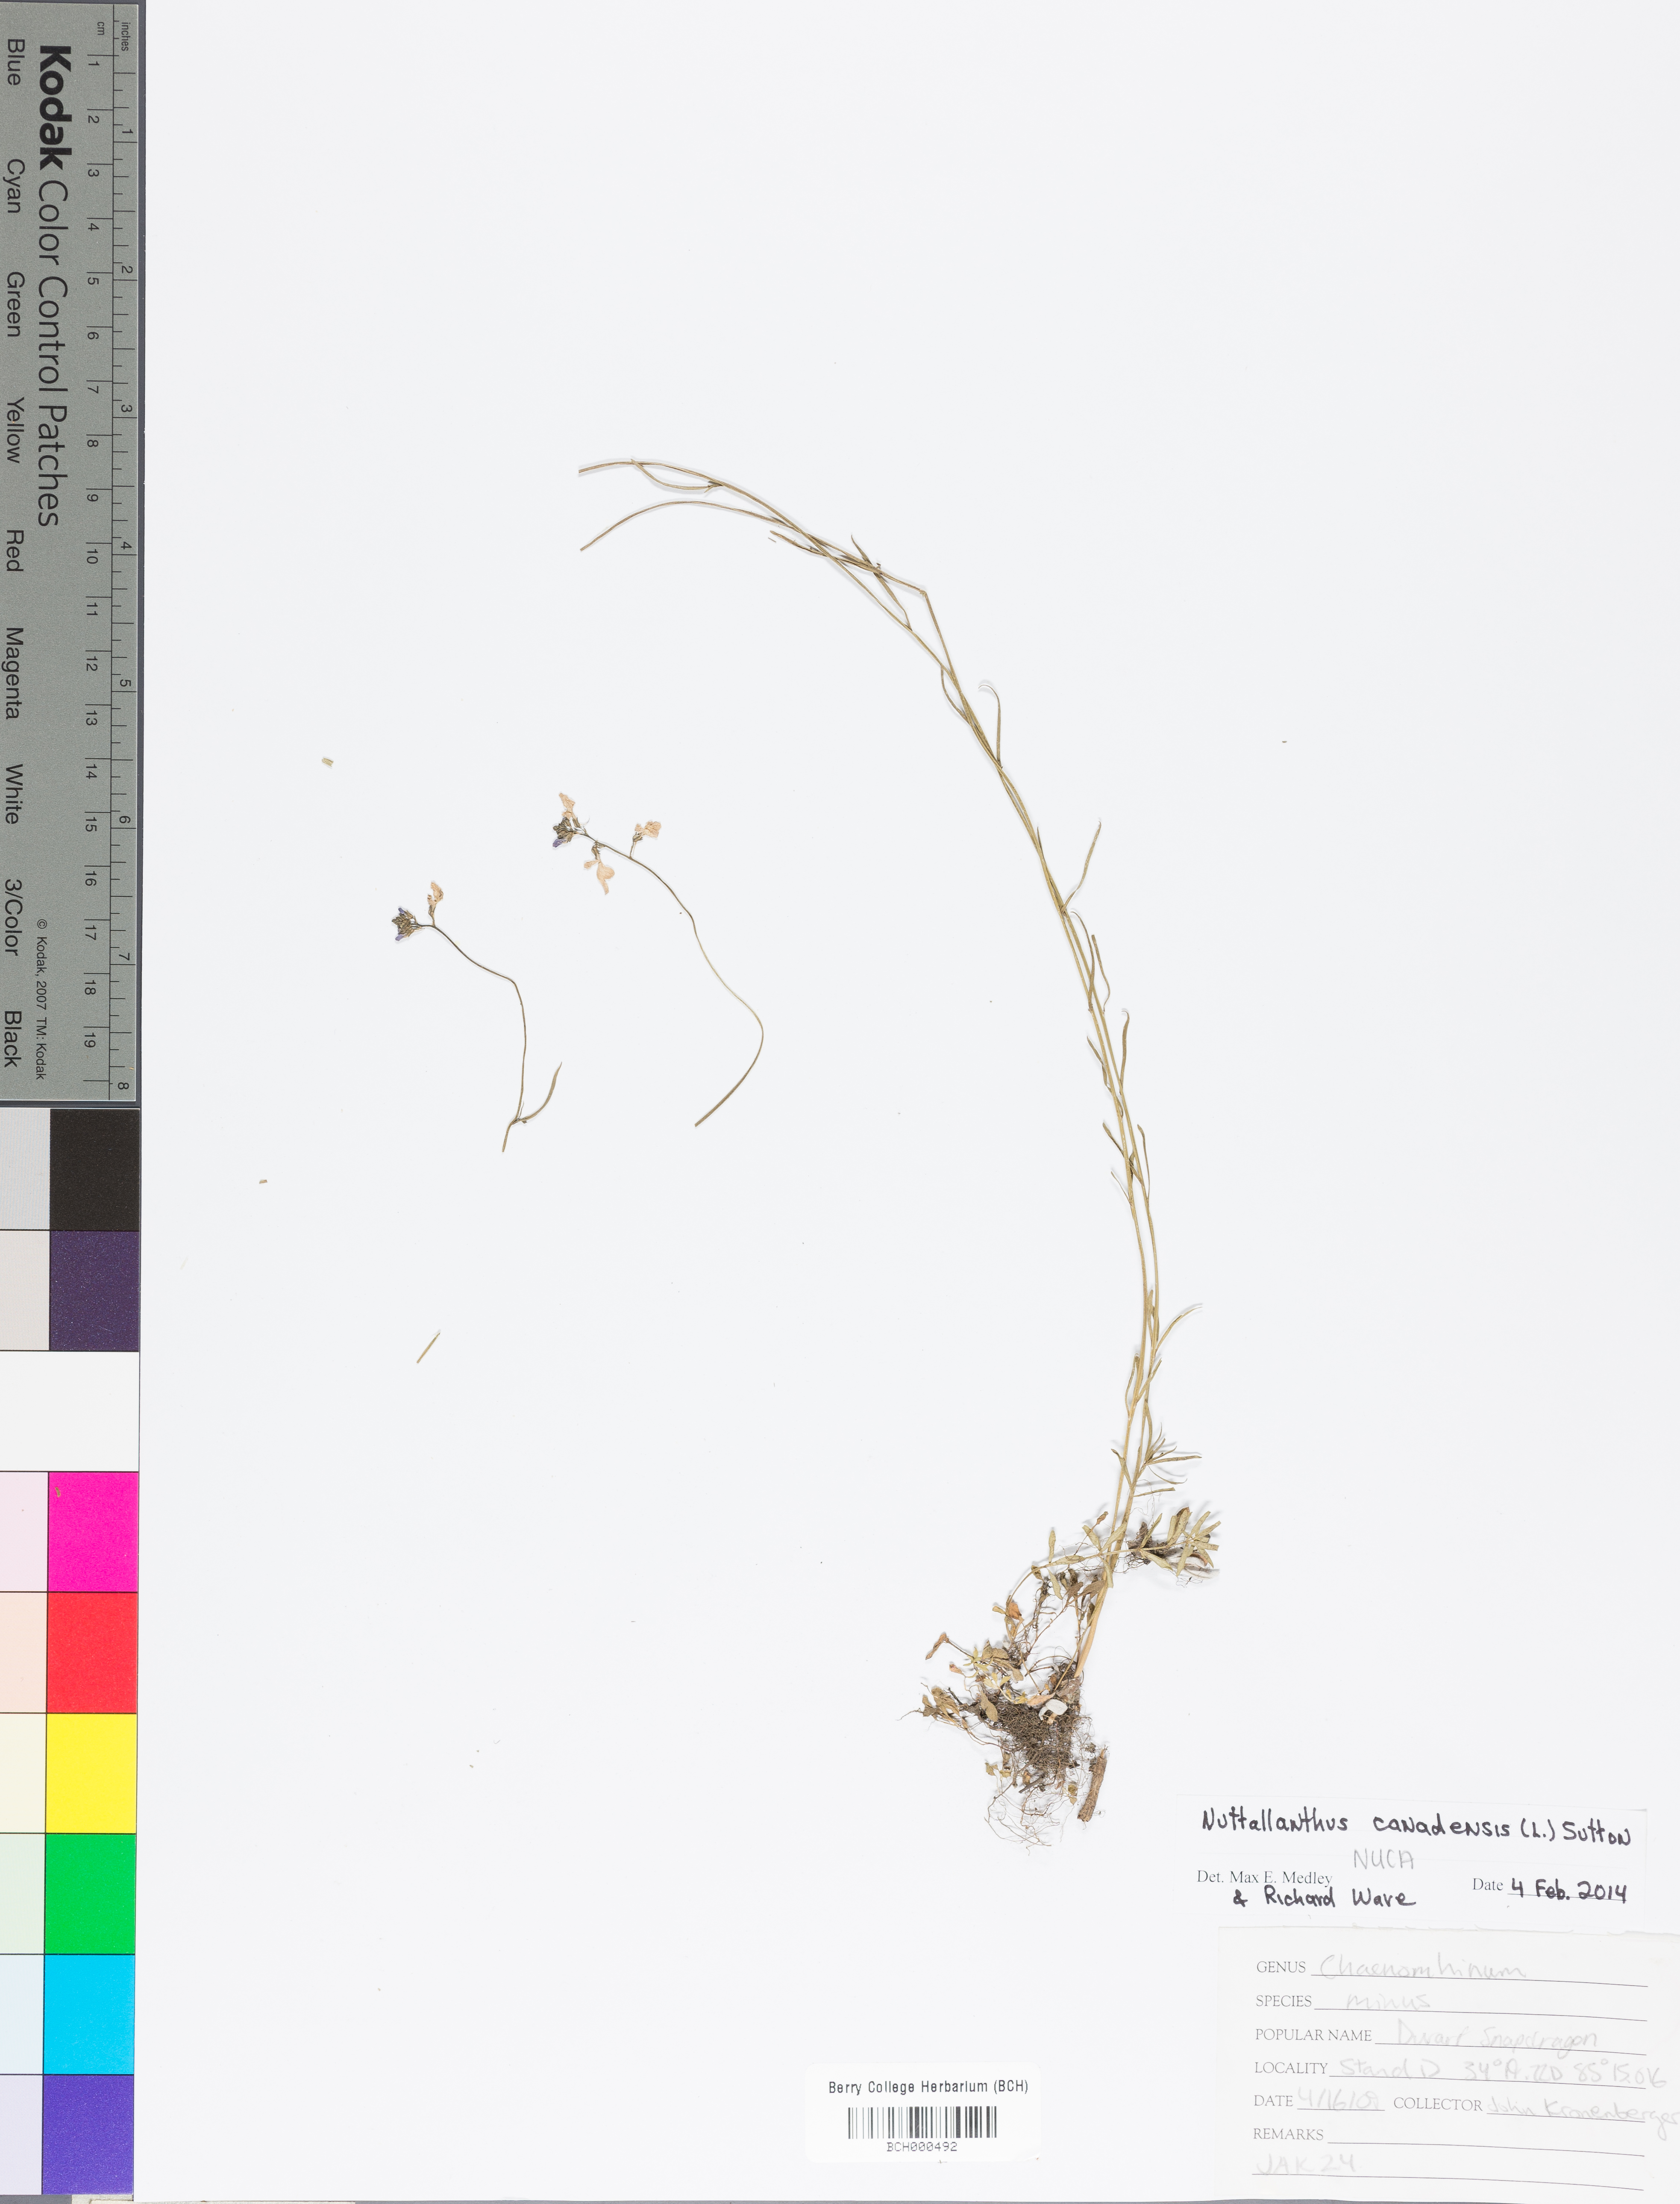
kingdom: Plantae
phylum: Tracheophyta
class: Magnoliopsida
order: Lamiales
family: Plantaginaceae
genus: Nuttallanthus
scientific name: Nuttallanthus canadensis
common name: Blue toadflax
